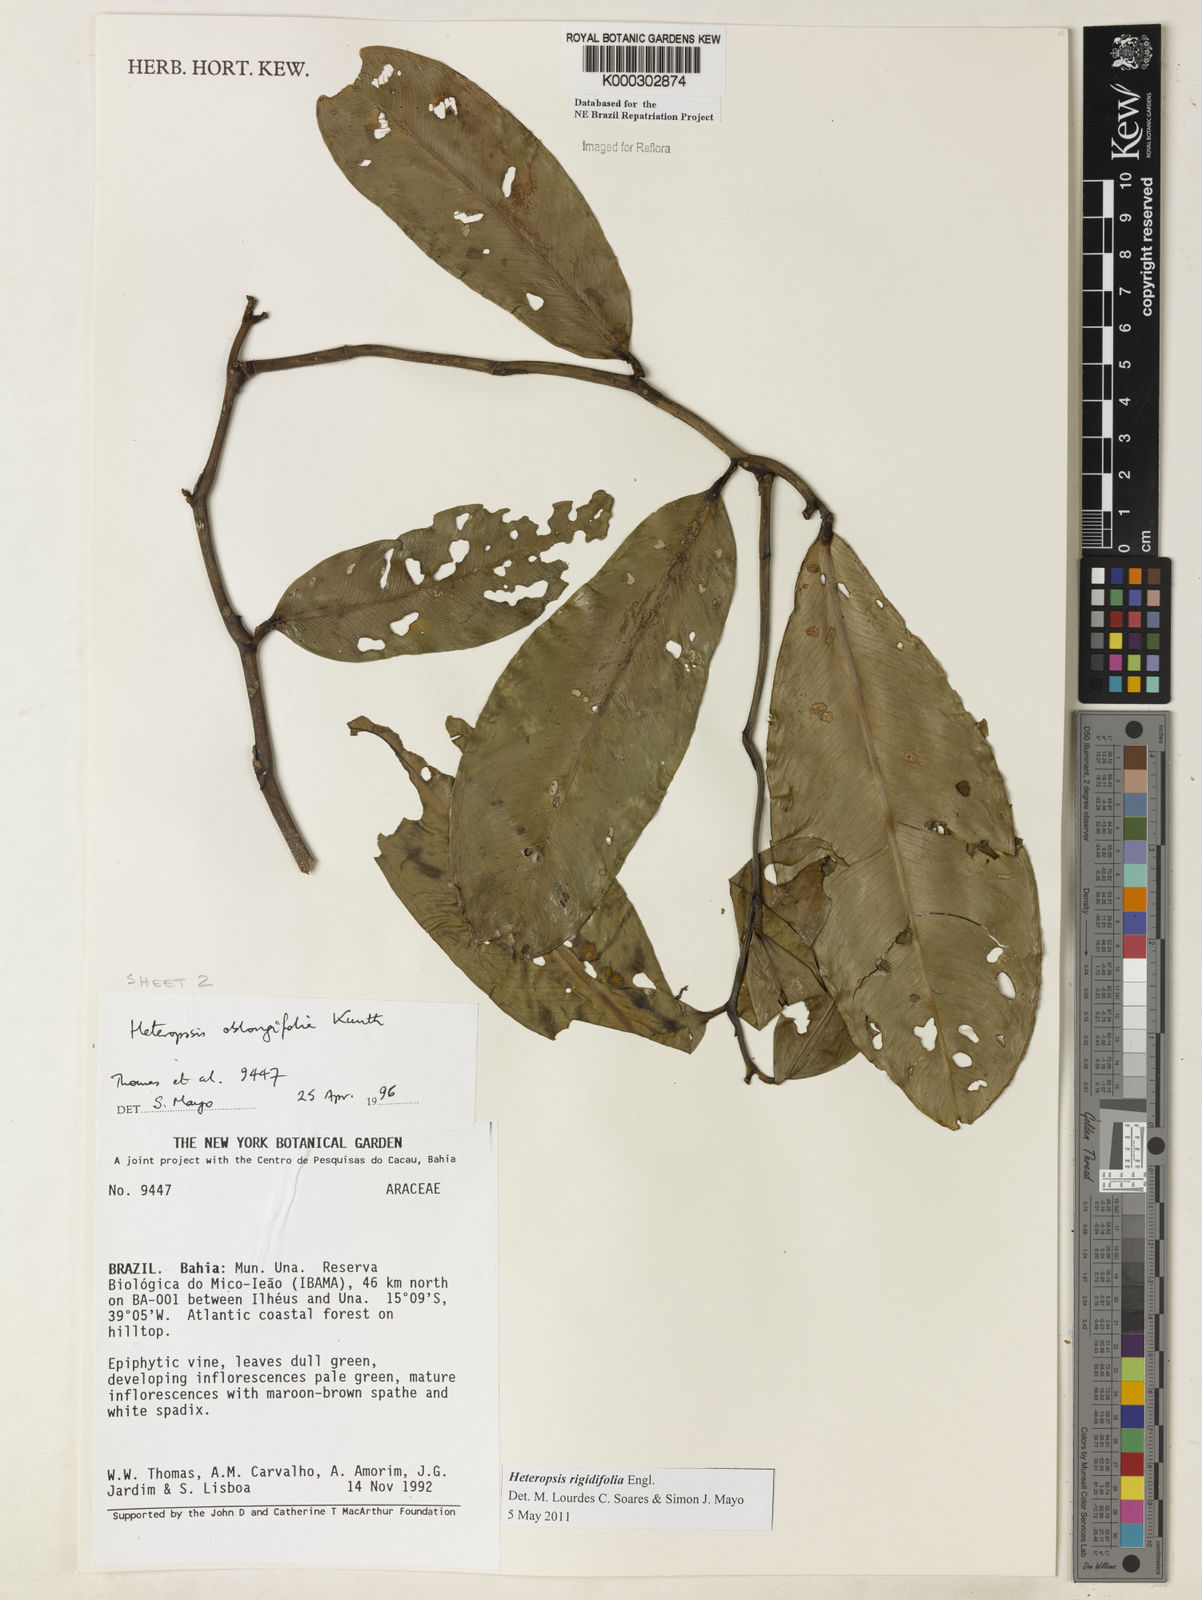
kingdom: Plantae
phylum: Tracheophyta
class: Liliopsida
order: Alismatales
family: Araceae
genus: Heteropsis
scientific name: Heteropsis oblongifolia
